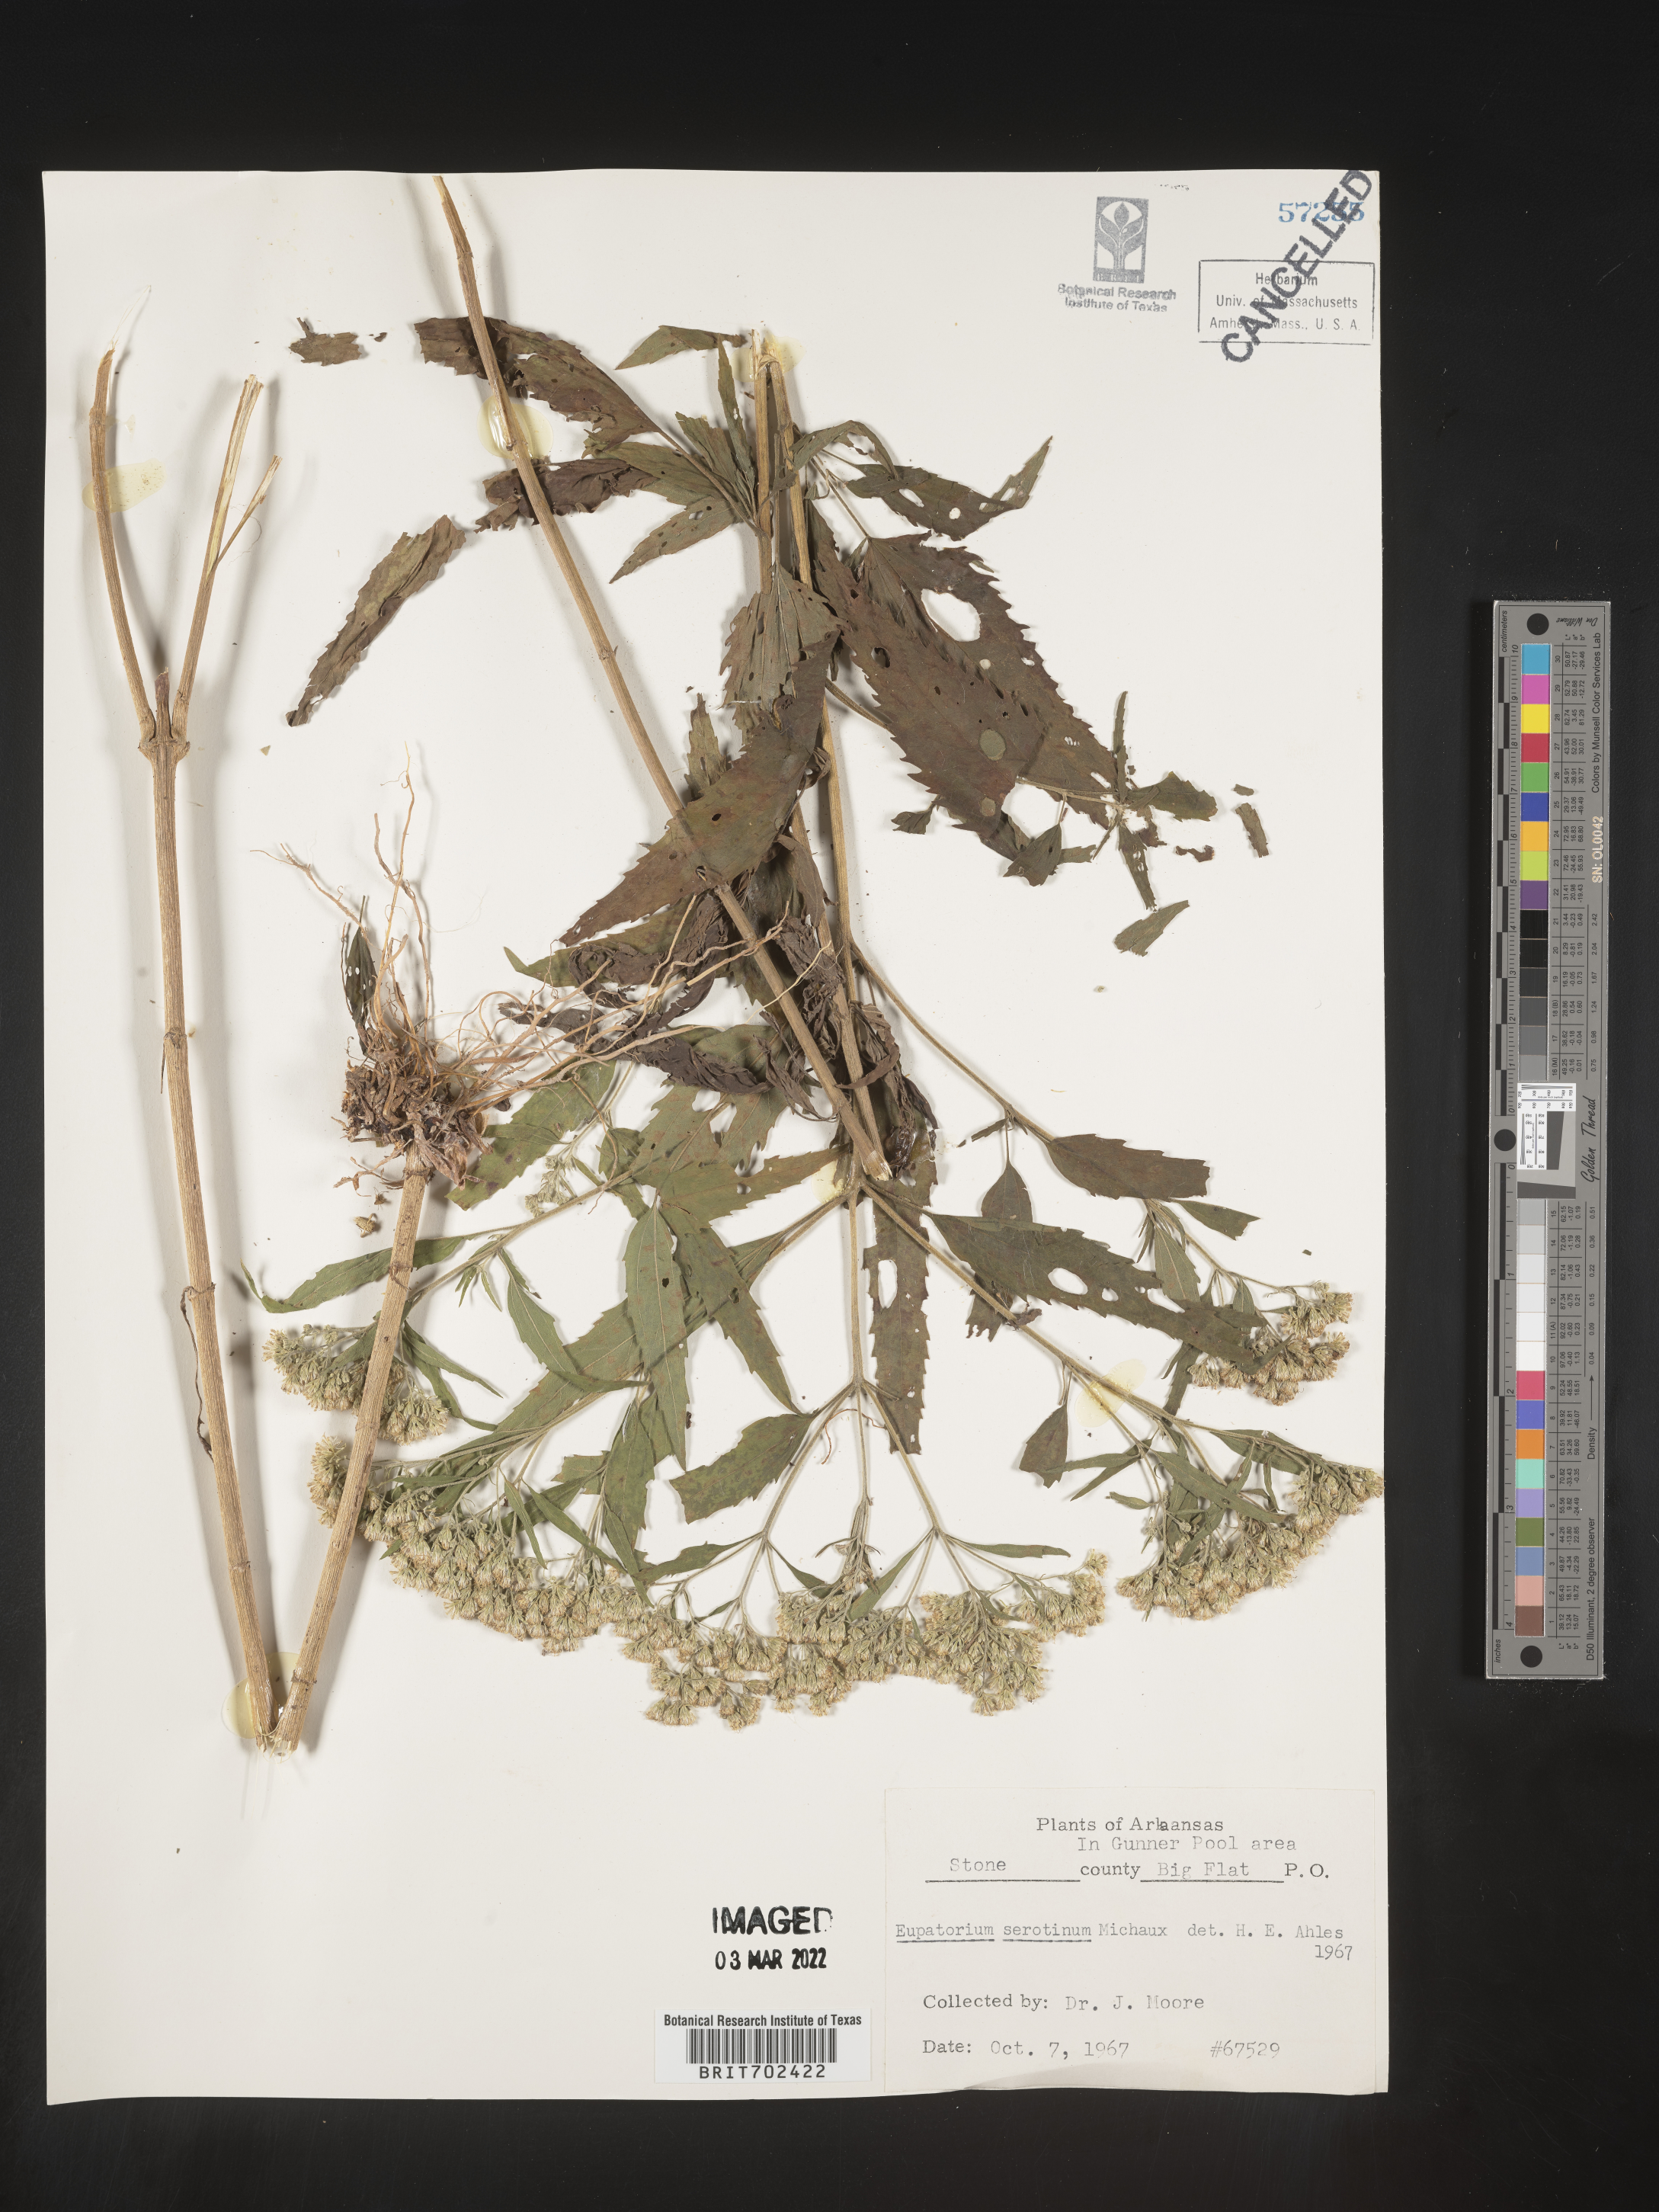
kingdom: Plantae
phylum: Tracheophyta
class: Magnoliopsida
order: Asterales
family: Asteraceae
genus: Eupatorium
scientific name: Eupatorium serotinum
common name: Late boneset
